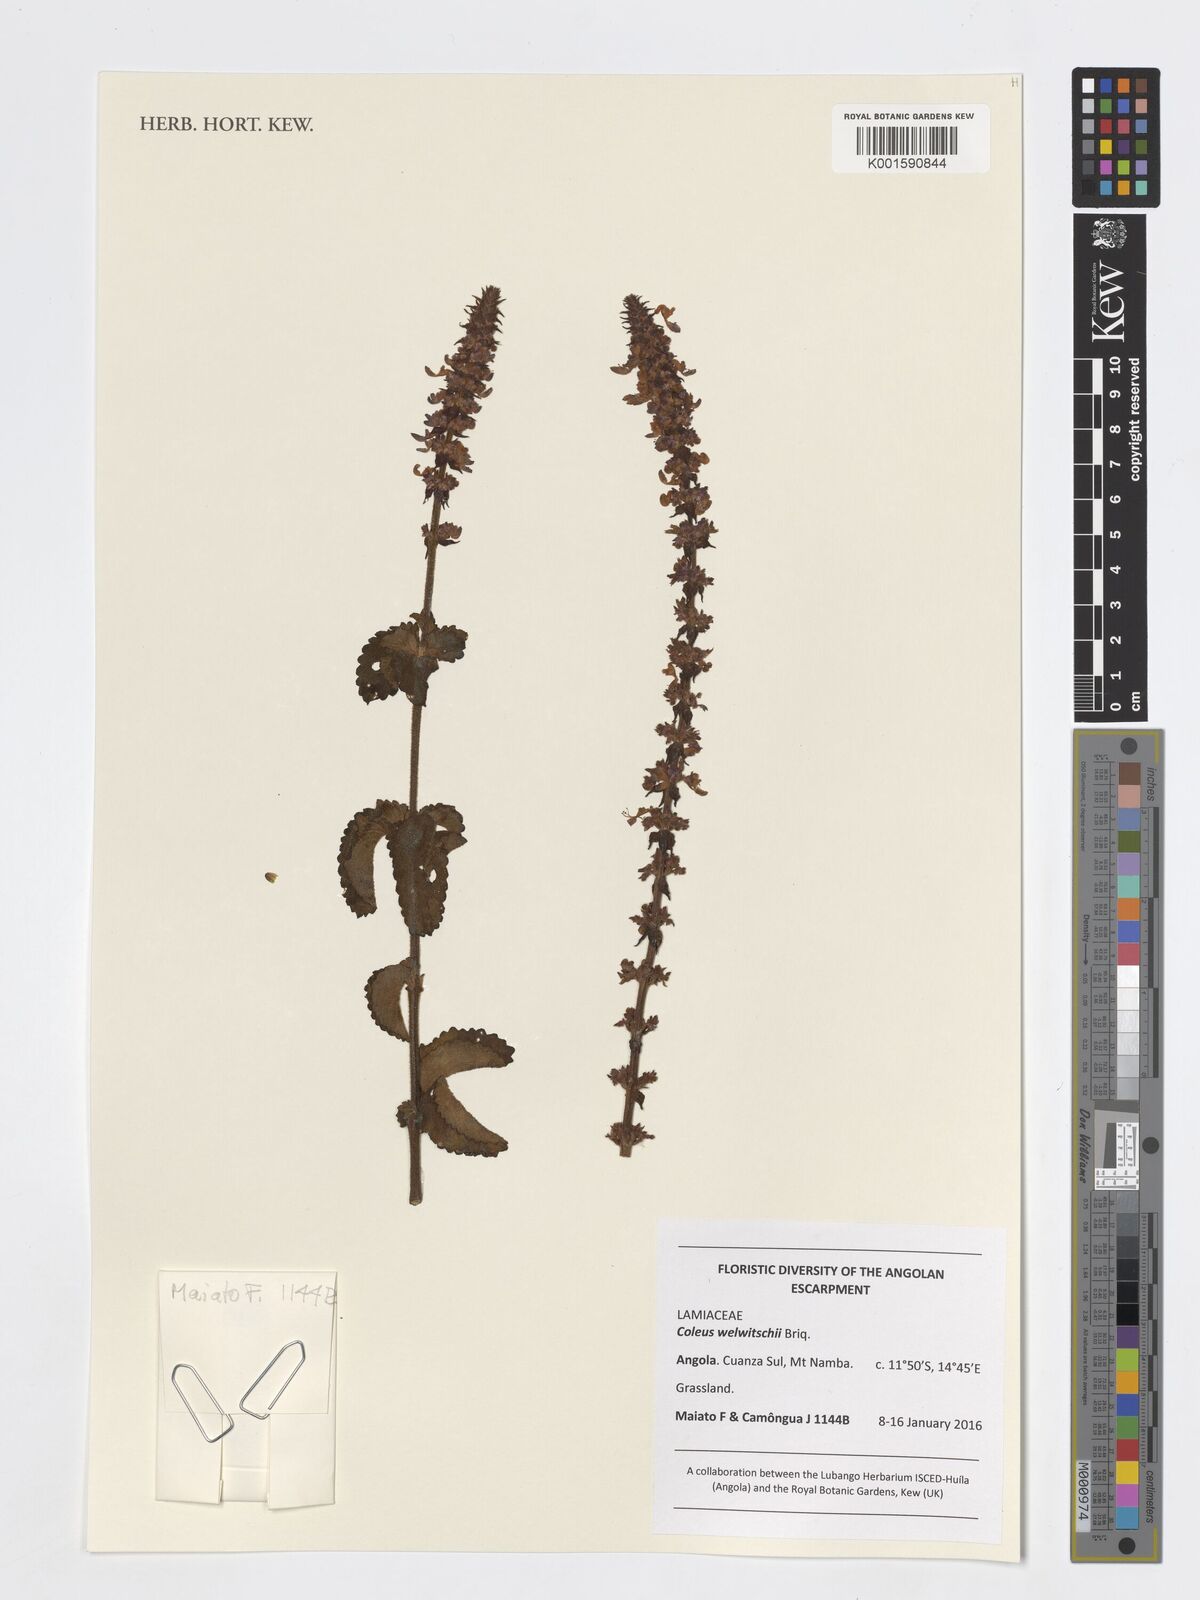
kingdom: Plantae
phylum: Tracheophyta
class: Magnoliopsida
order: Lamiales
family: Lamiaceae
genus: Coleus
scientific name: Coleus welwitschii
